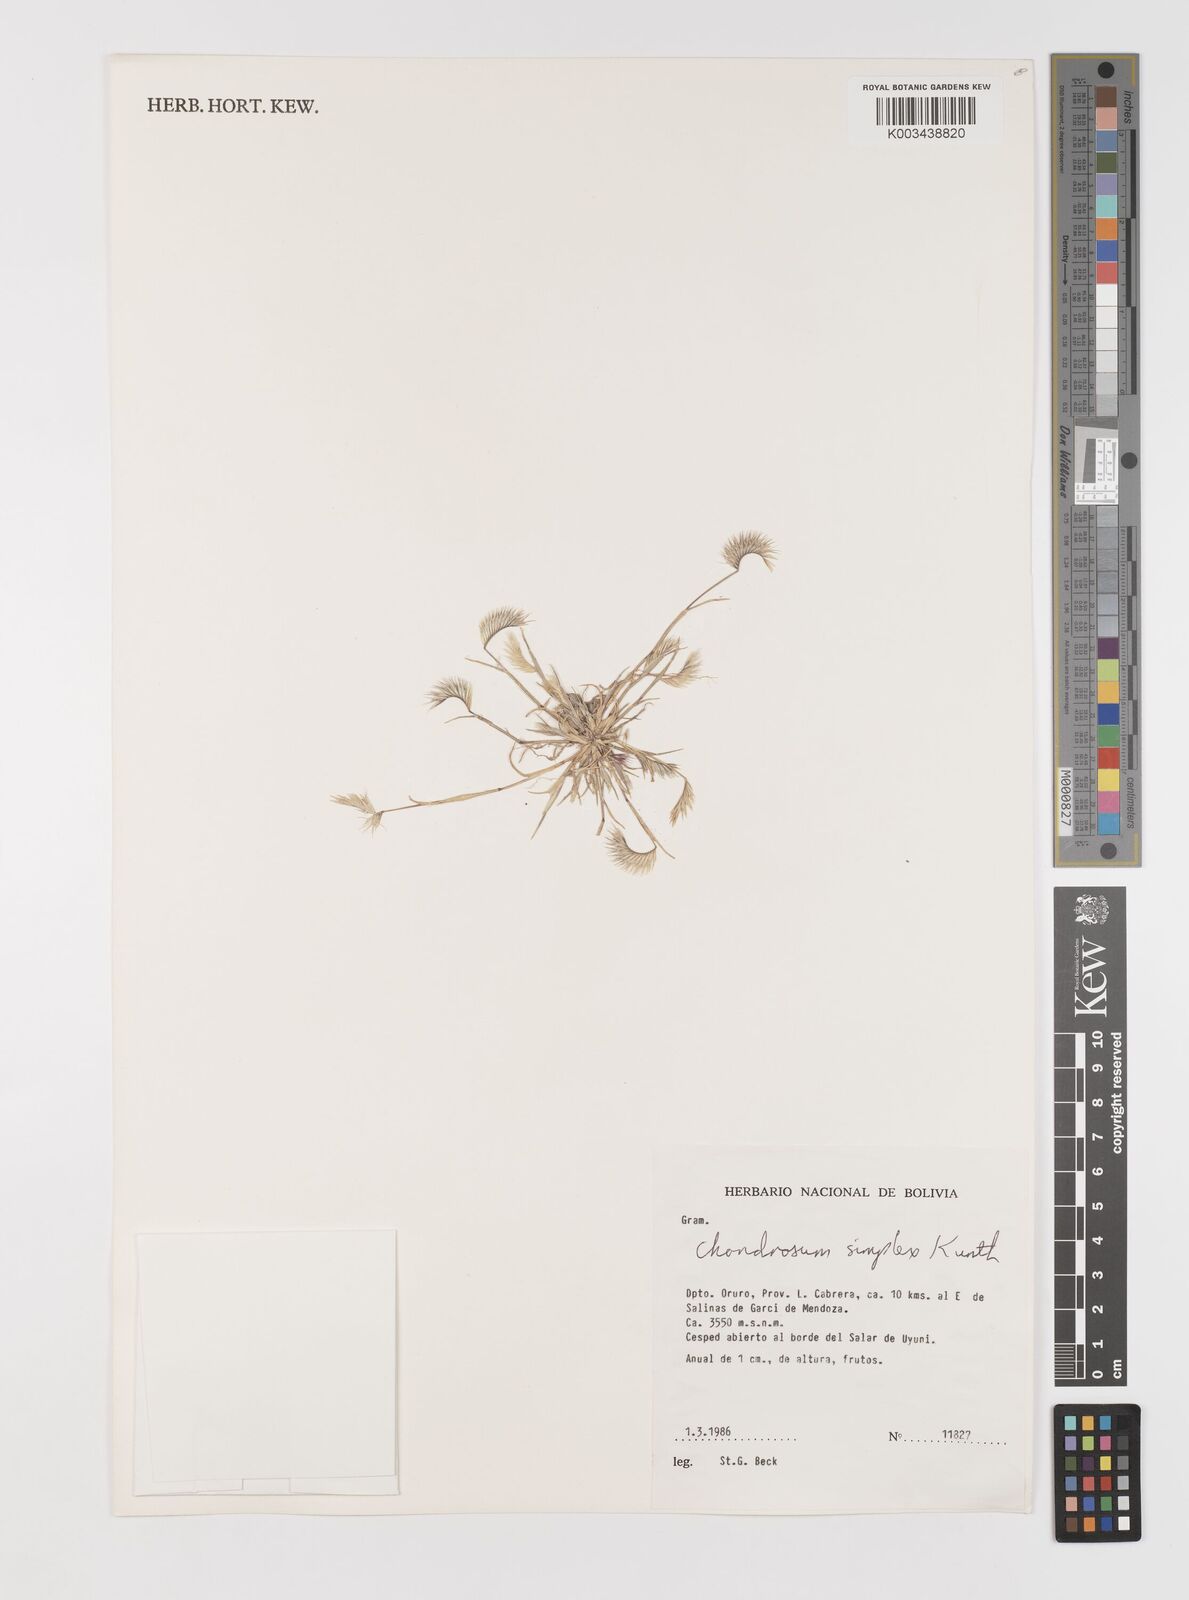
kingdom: Plantae
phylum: Tracheophyta
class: Liliopsida
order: Poales
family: Poaceae
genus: Bouteloua
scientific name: Bouteloua simplex
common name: Mat grama
